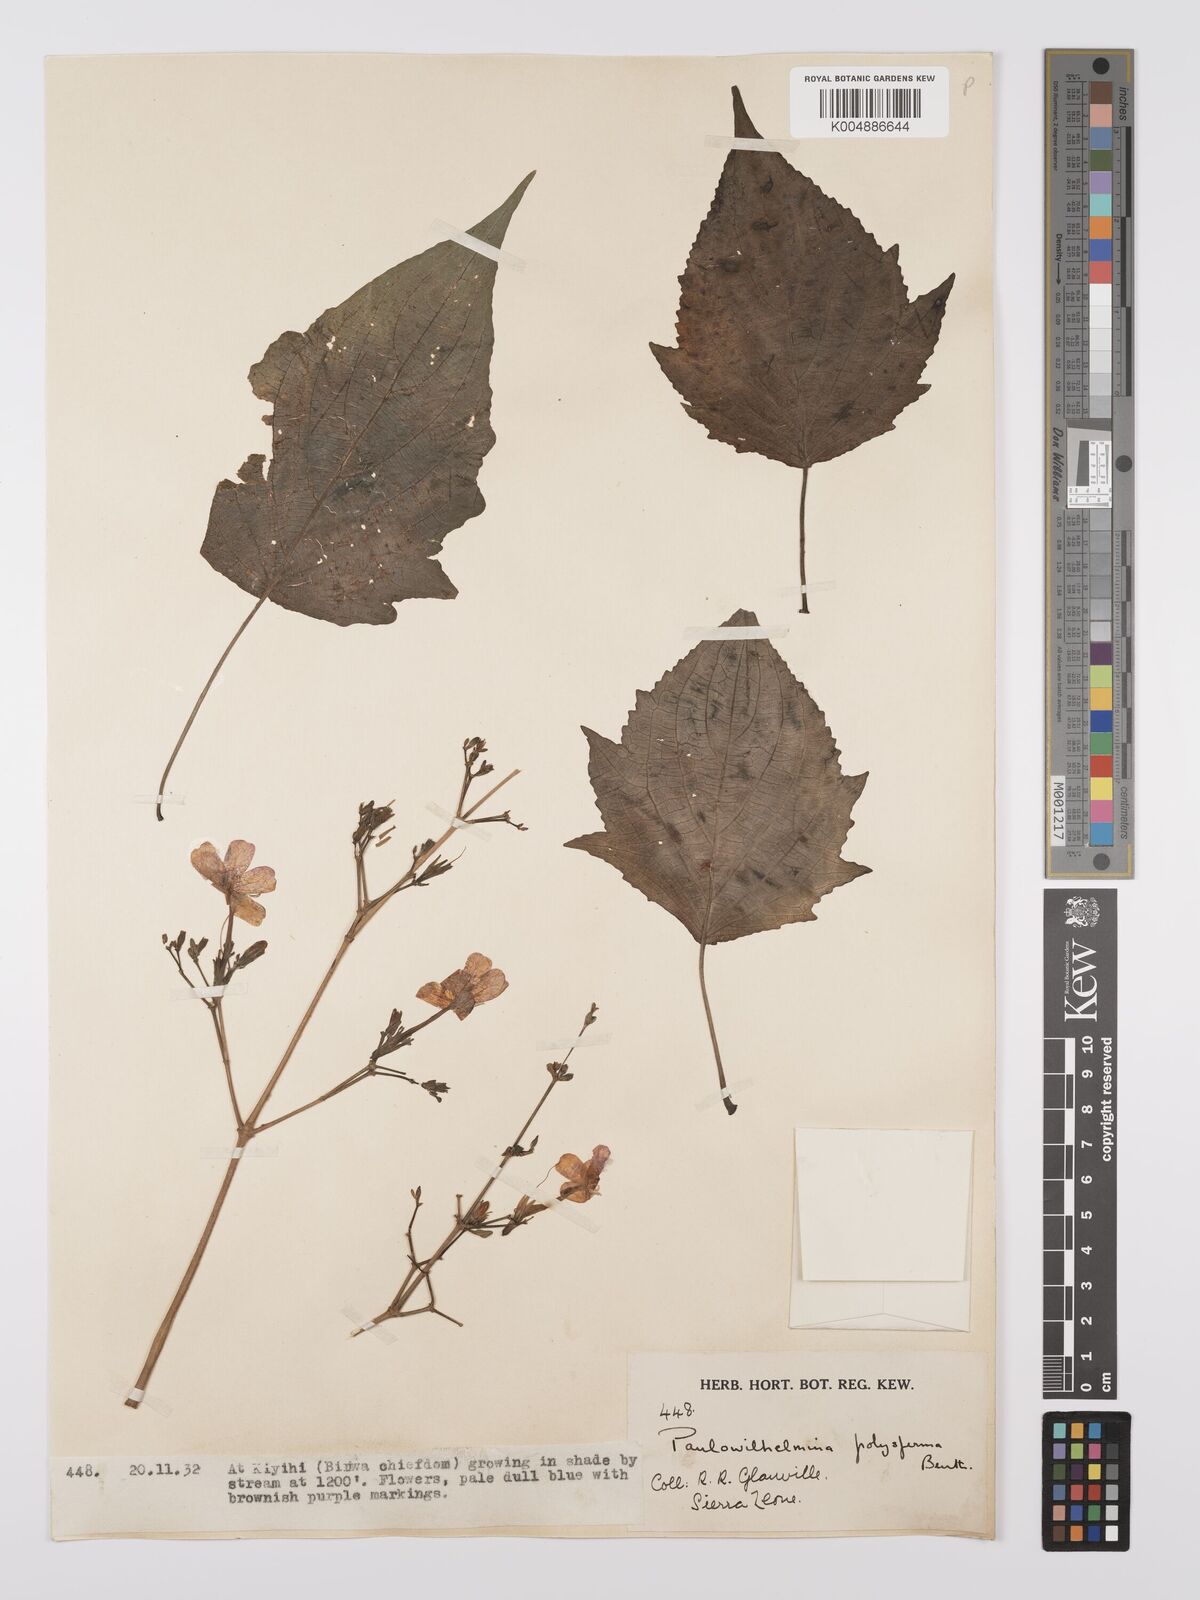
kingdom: Plantae
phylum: Tracheophyta
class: Magnoliopsida
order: Lamiales
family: Acanthaceae
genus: Eremomastax
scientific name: Eremomastax speciosa
